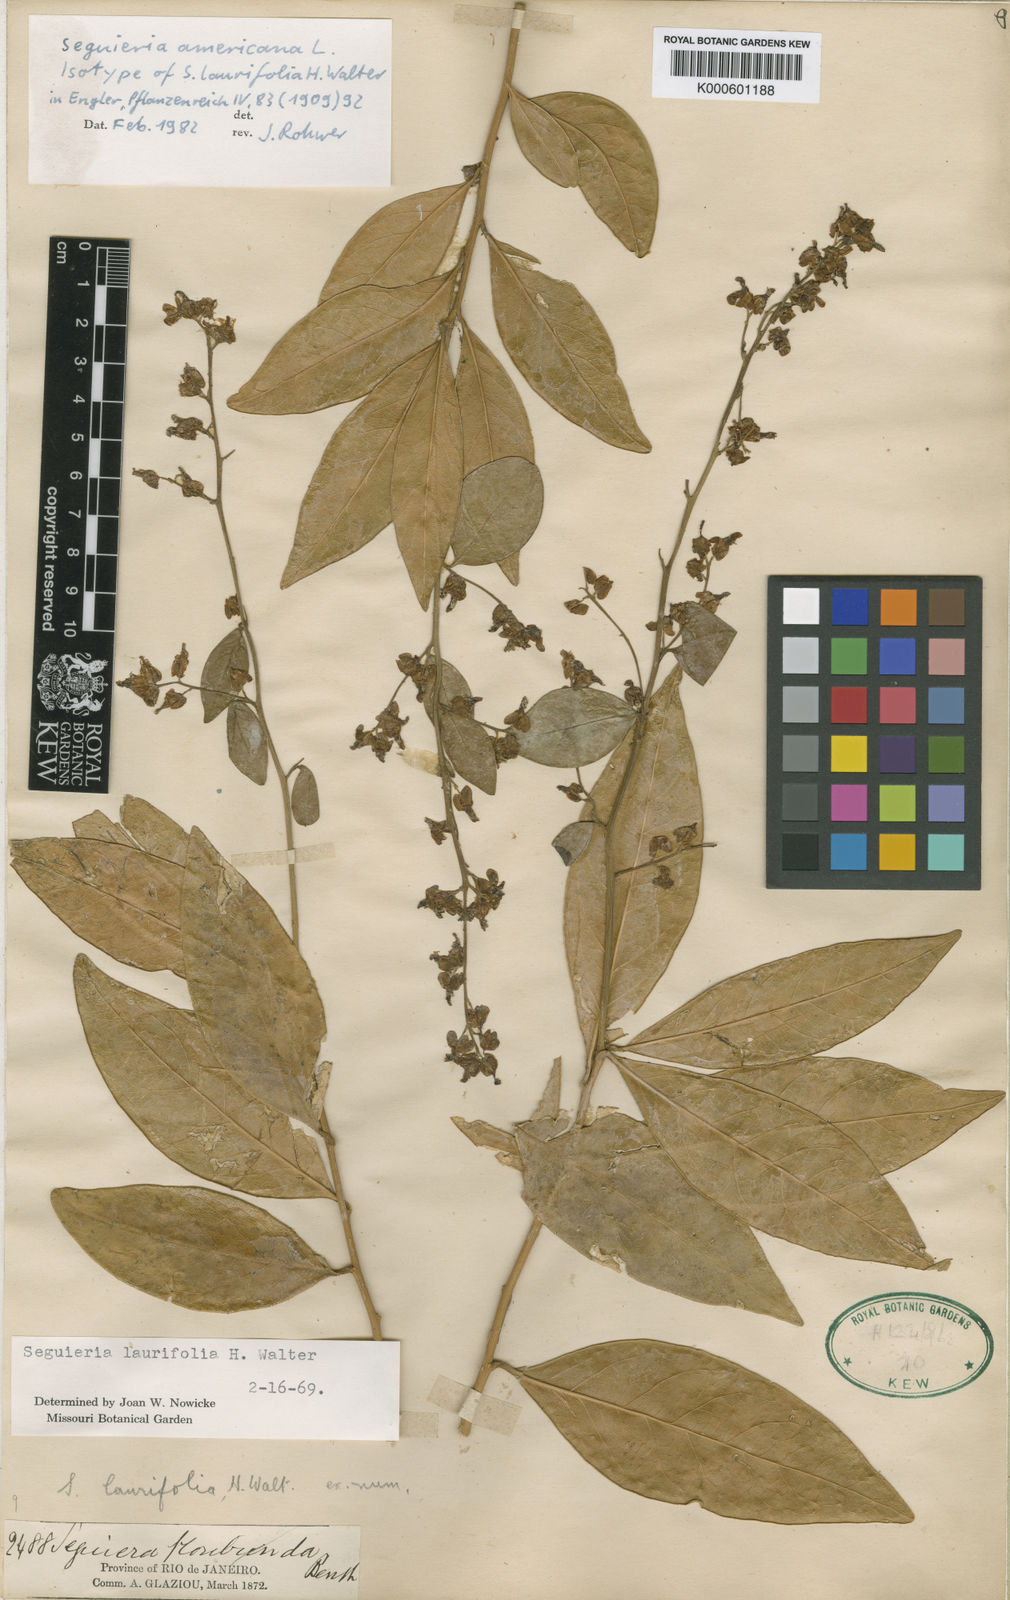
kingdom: Plantae
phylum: Tracheophyta
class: Magnoliopsida
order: Caryophyllales
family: Phytolaccaceae
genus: Seguieria
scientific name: Seguieria americana
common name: American seguieria
